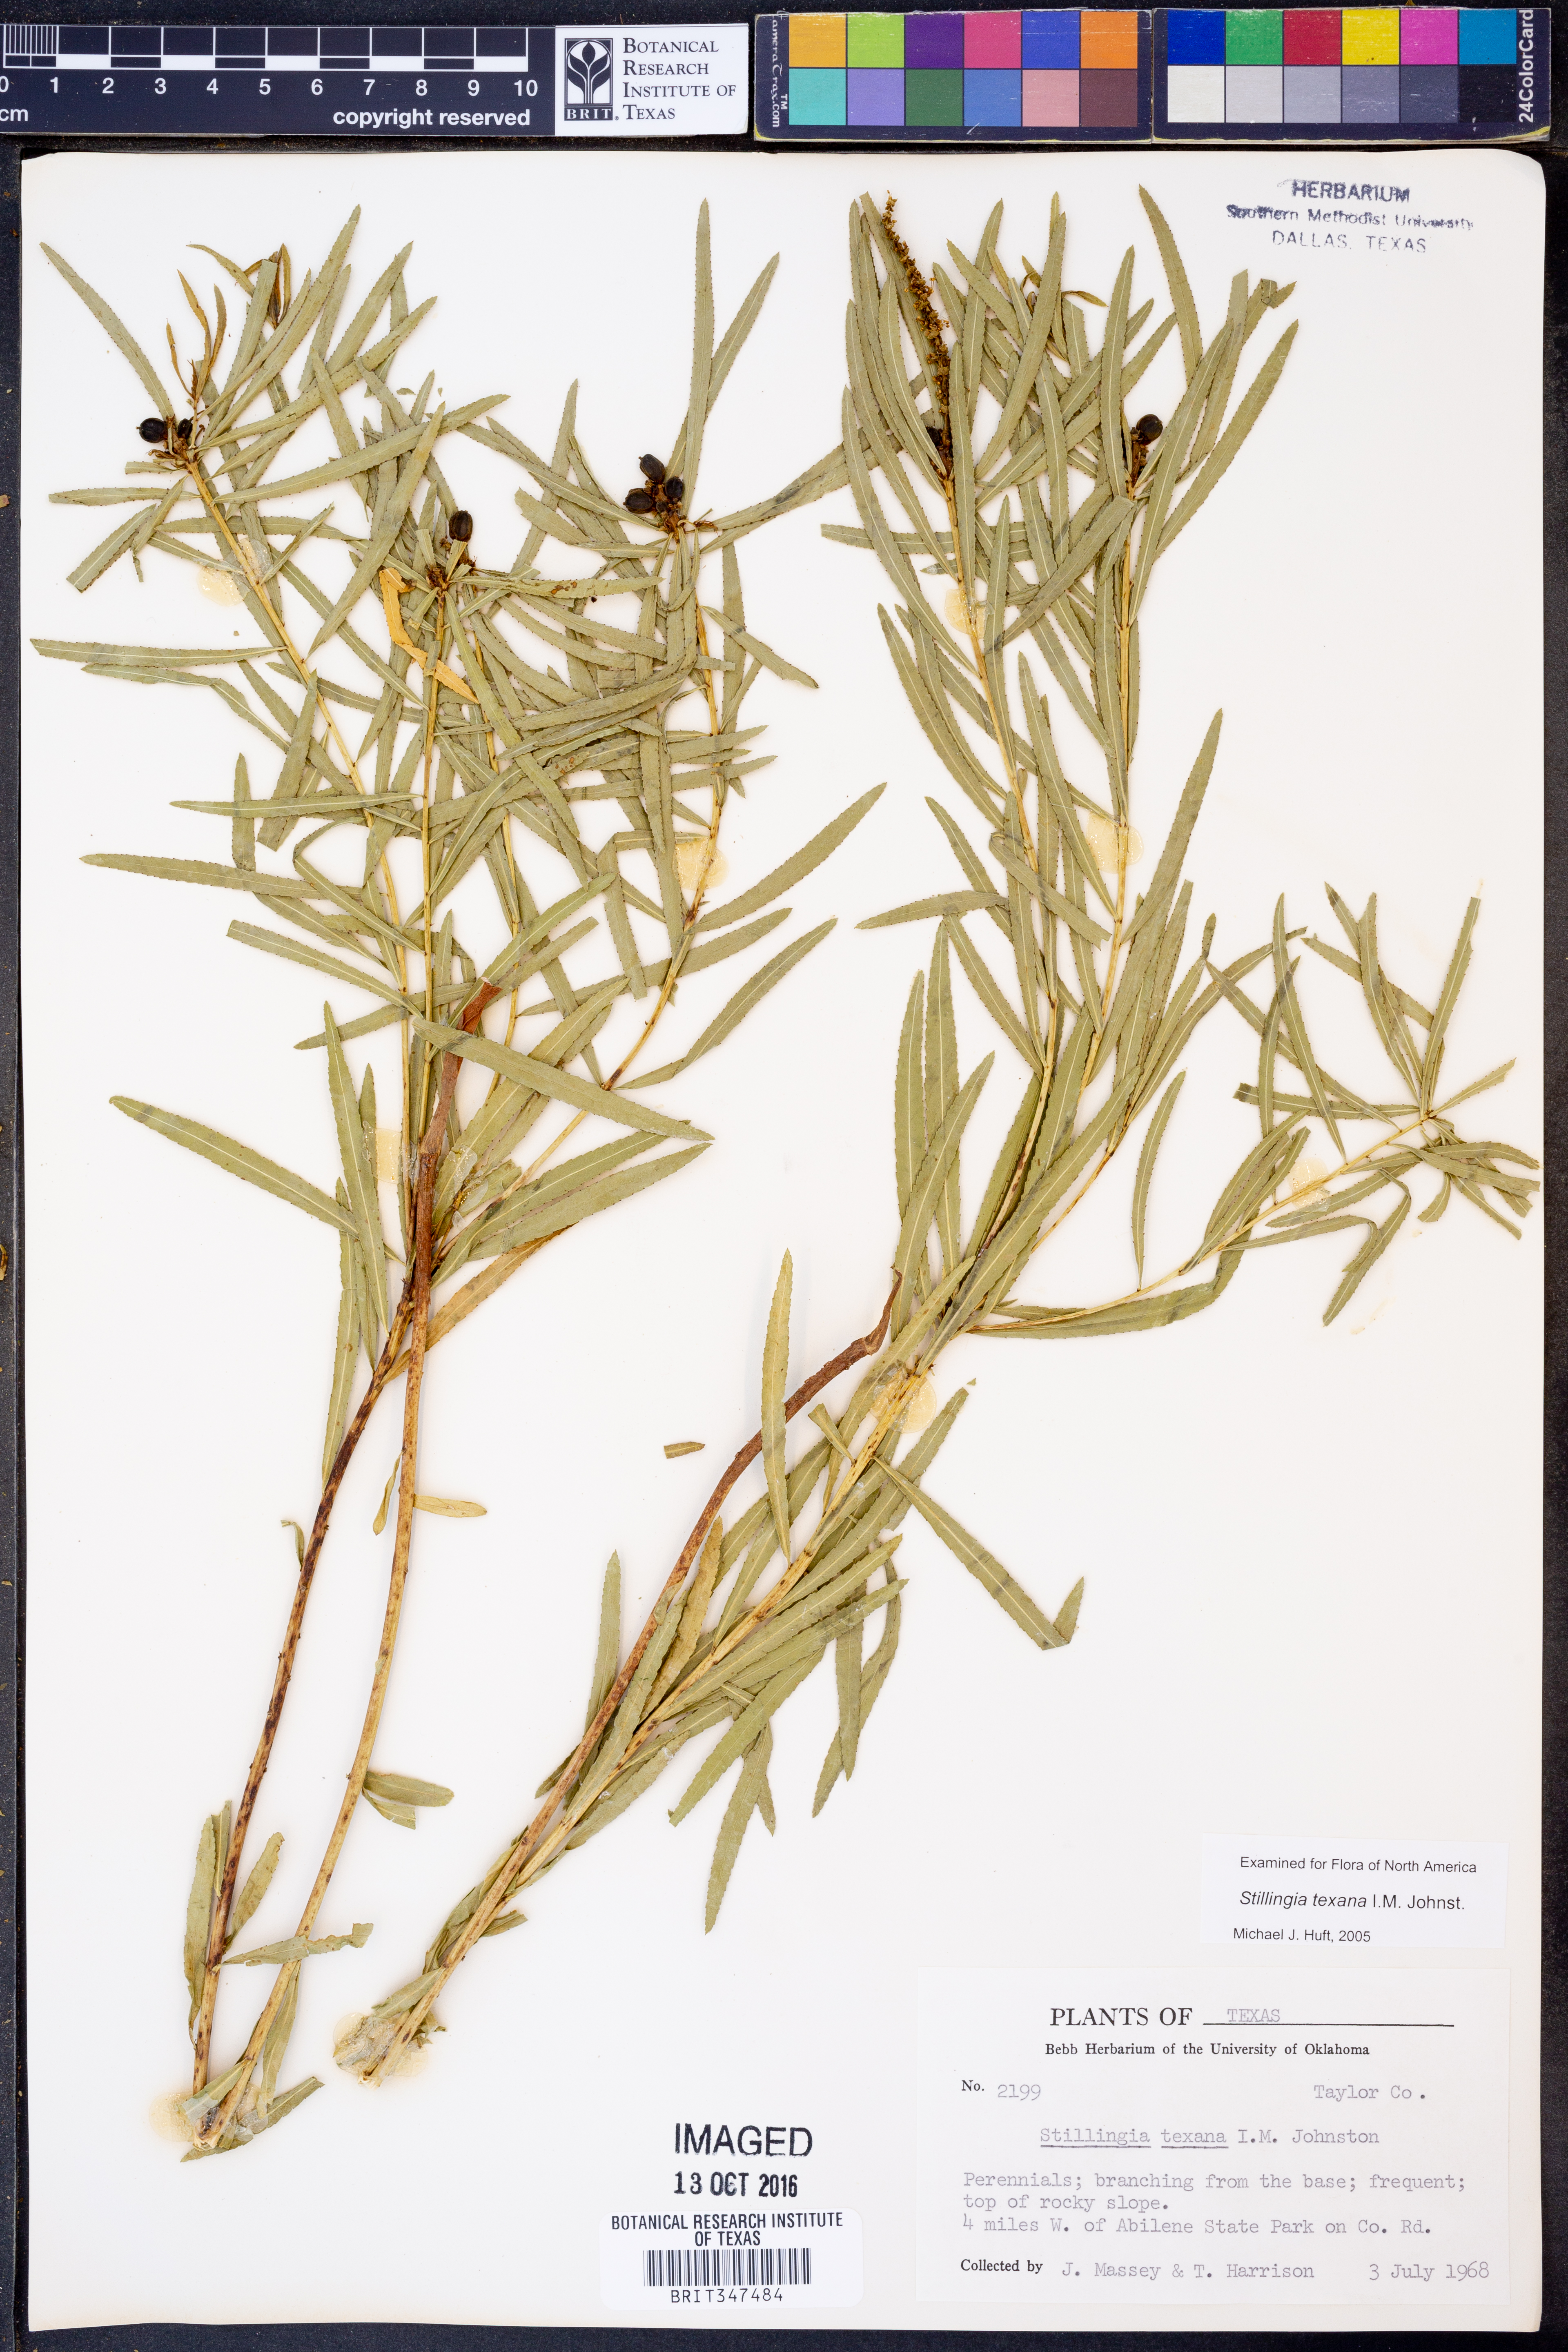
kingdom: Plantae
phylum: Tracheophyta
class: Magnoliopsida
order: Malpighiales
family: Euphorbiaceae
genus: Stillingia
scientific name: Stillingia texana
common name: Texas stillingia
